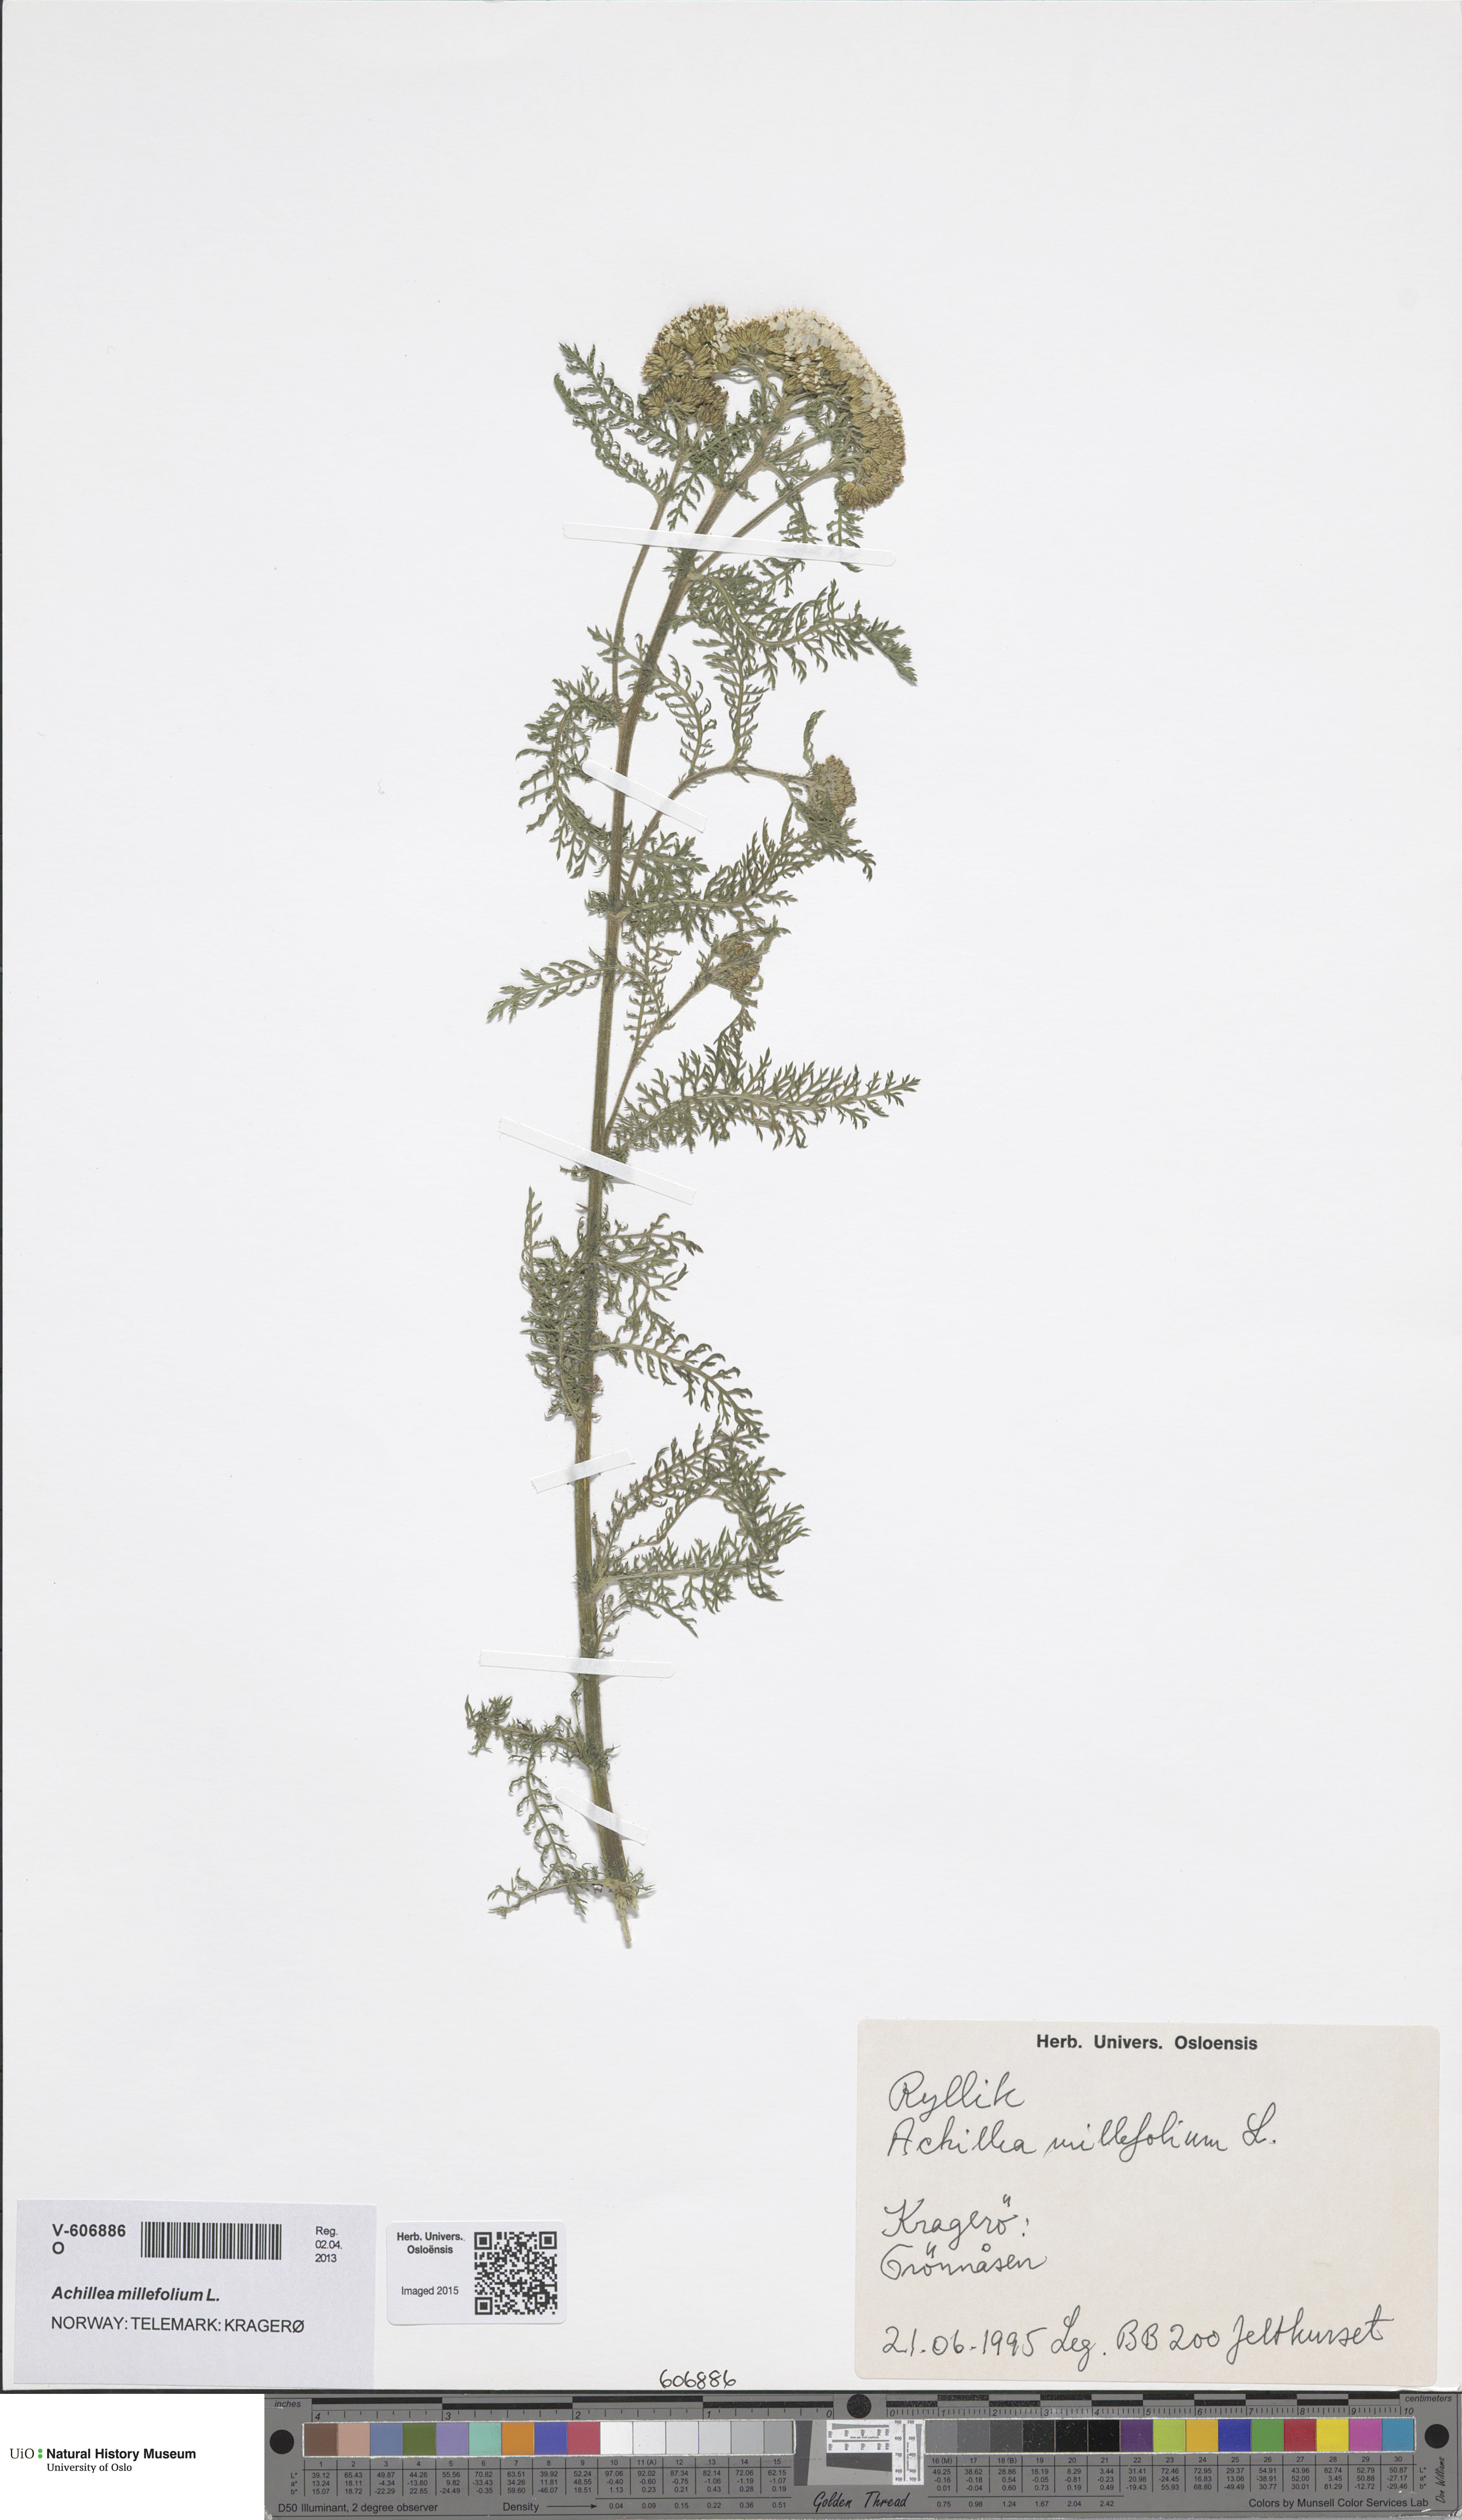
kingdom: Plantae
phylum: Tracheophyta
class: Magnoliopsida
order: Asterales
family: Asteraceae
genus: Achillea
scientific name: Achillea millefolium
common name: Yarrow
